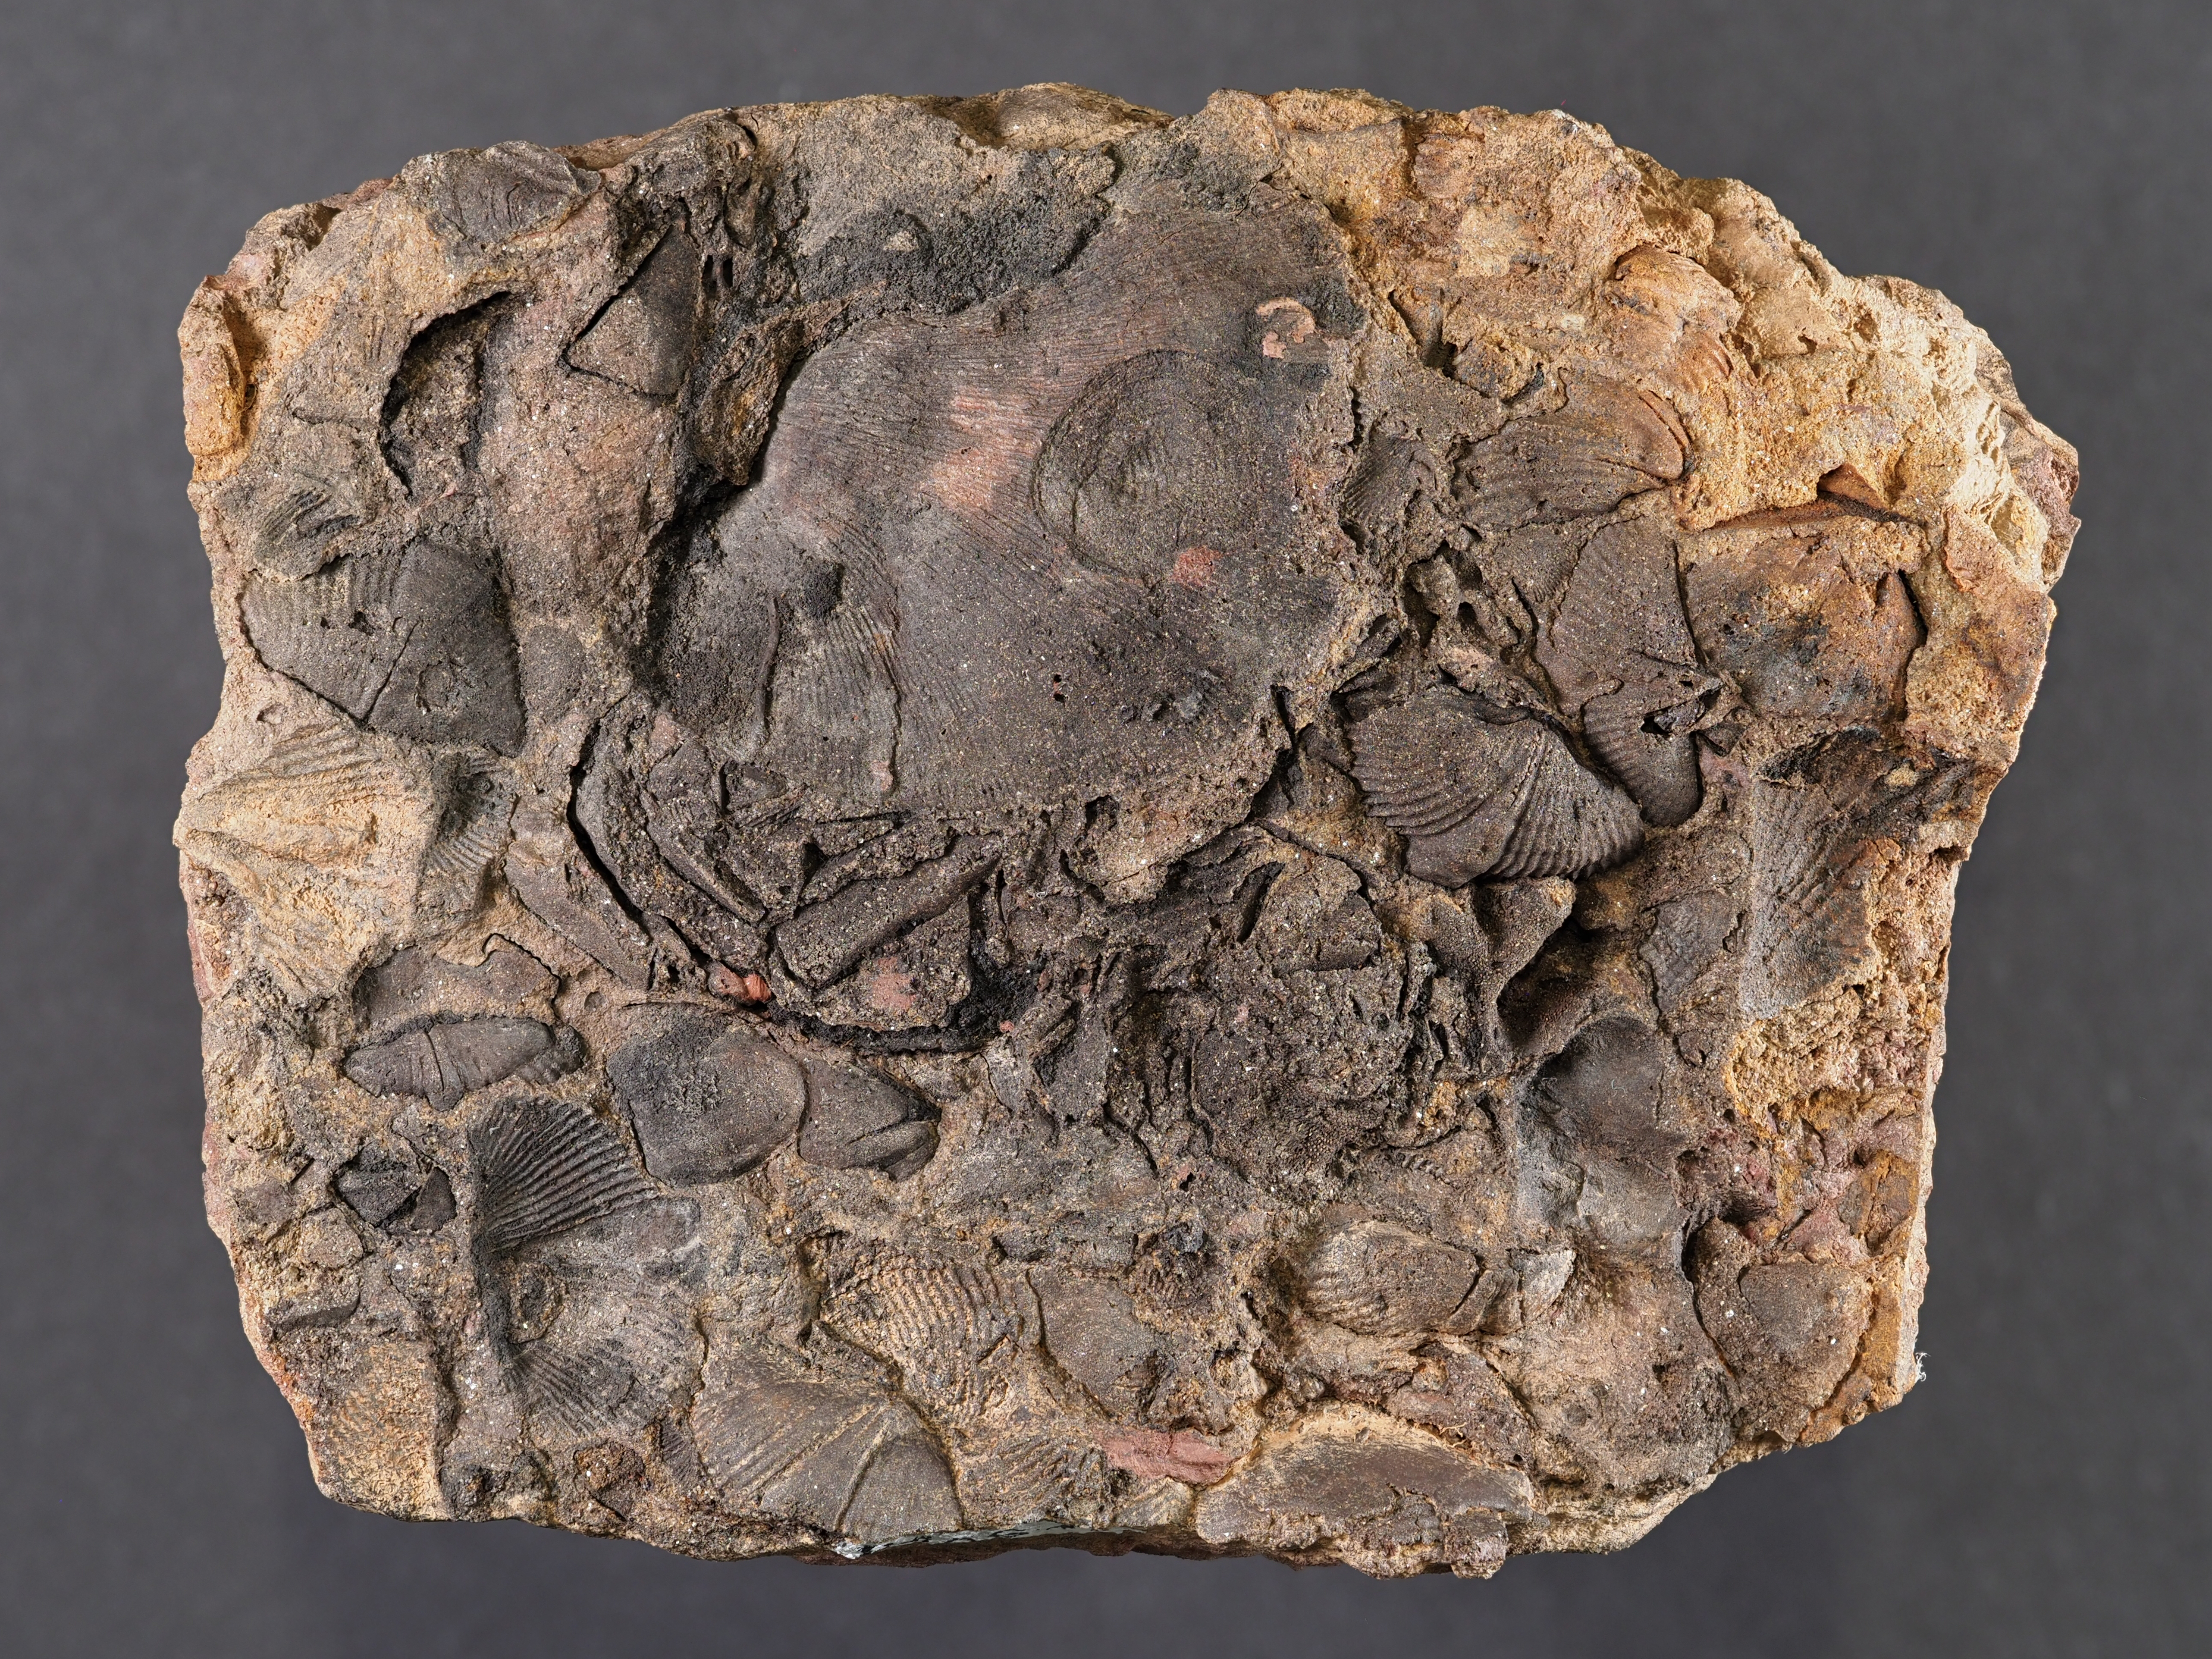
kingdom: Animalia
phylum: Brachiopoda
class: Rhynchonellata
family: Spinocyrtiidae
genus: Subcuspidella
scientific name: Subcuspidella
